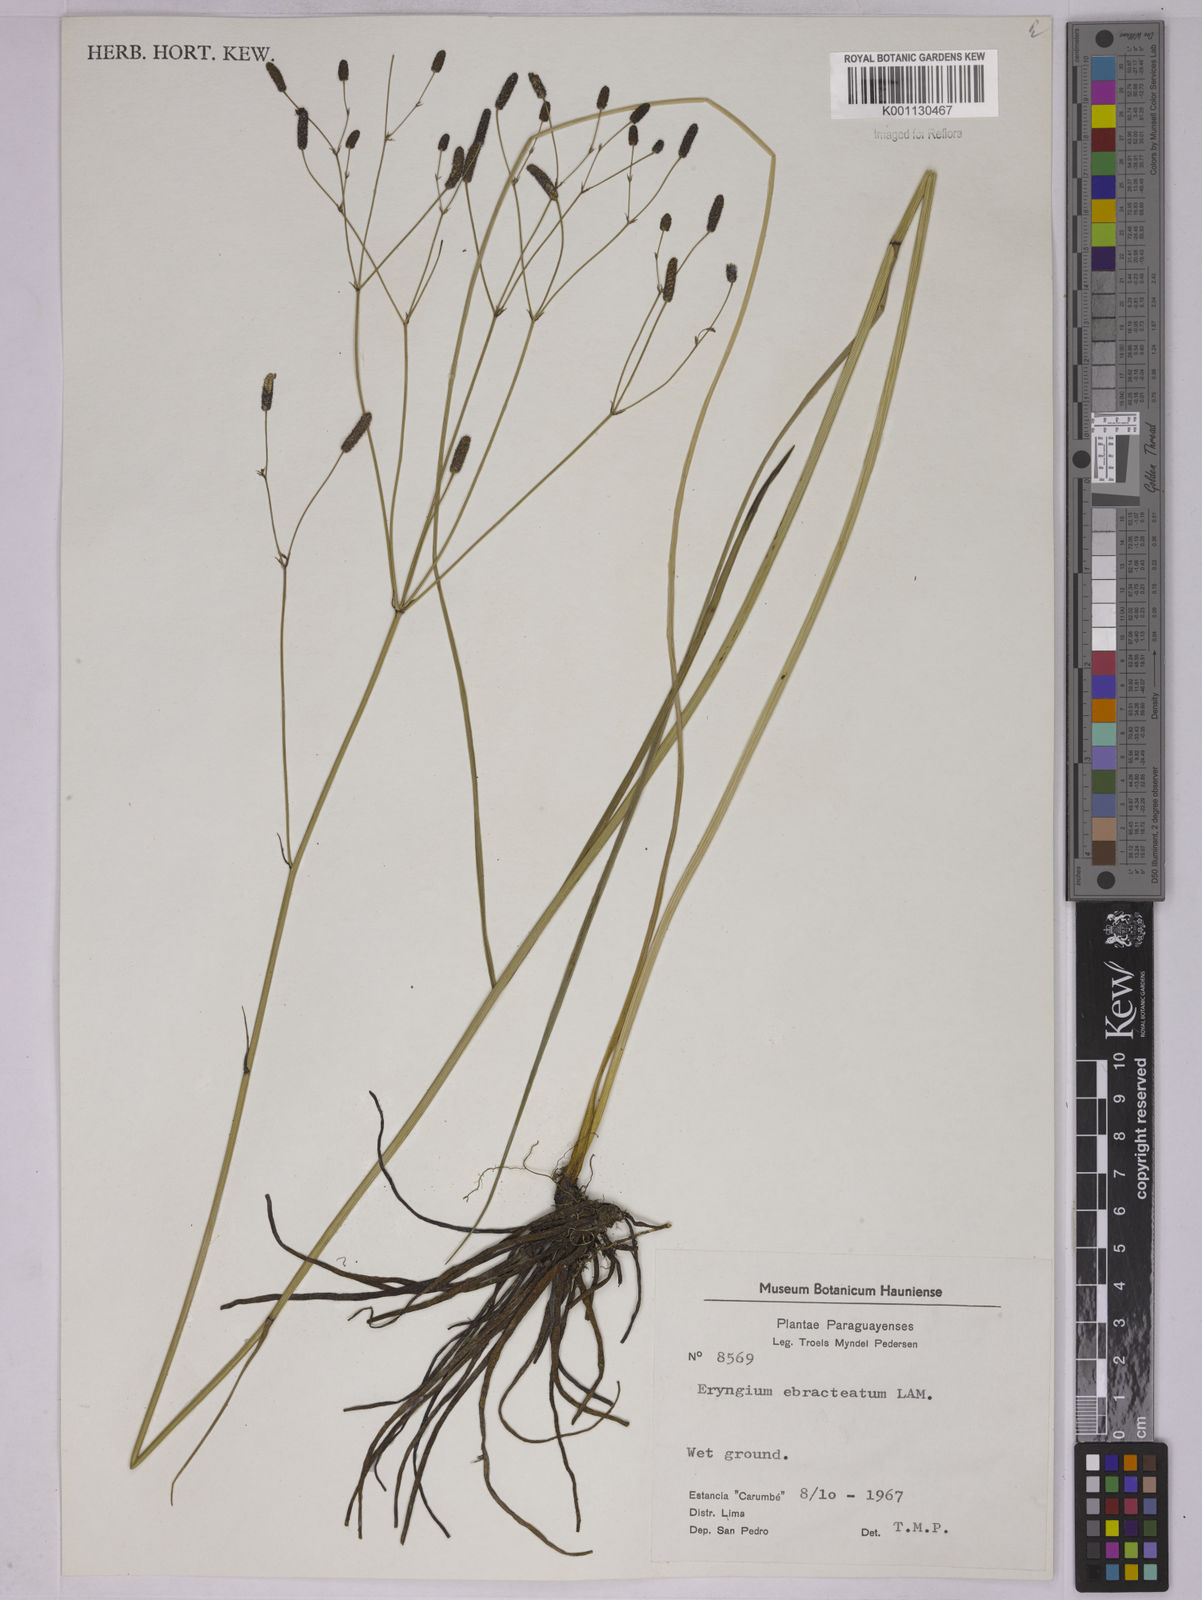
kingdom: Plantae
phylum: Tracheophyta
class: Magnoliopsida
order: Apiales
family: Apiaceae
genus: Eryngium
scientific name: Eryngium ebracteatum
